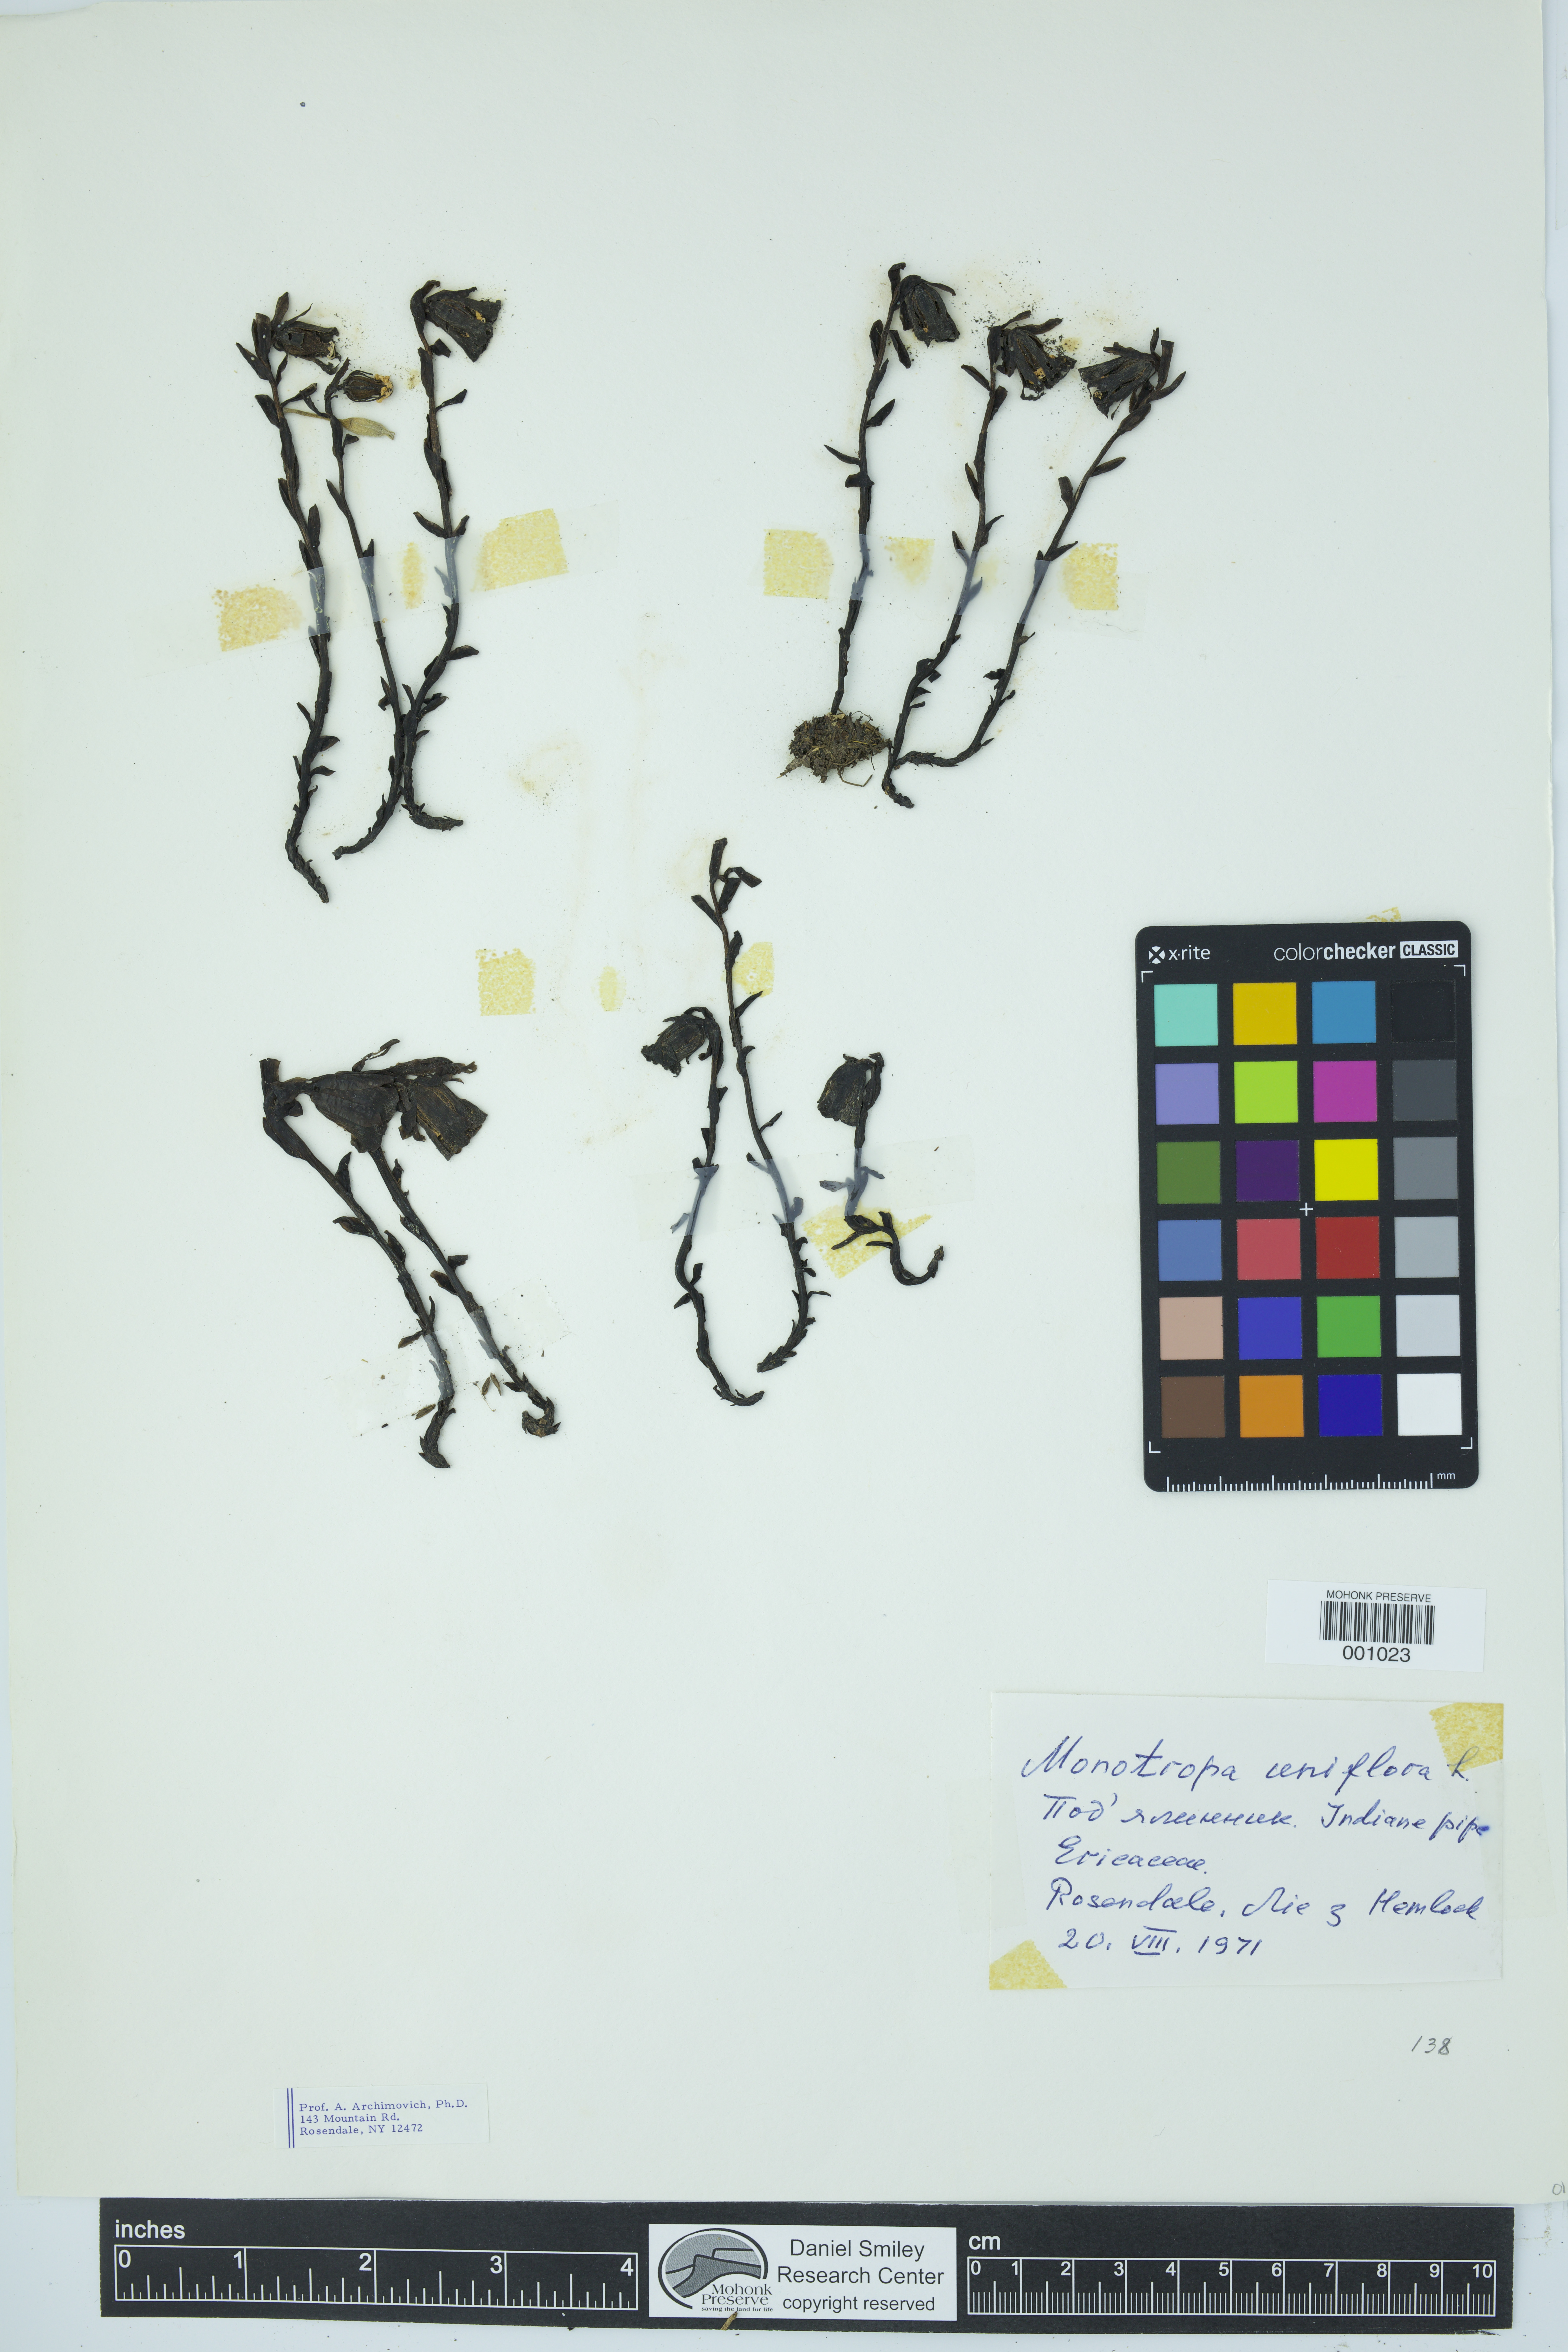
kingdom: Plantae
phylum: Tracheophyta
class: Magnoliopsida
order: Ericales
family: Ericaceae
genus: Monotropa
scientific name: Monotropa uniflora
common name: Convulsion root
